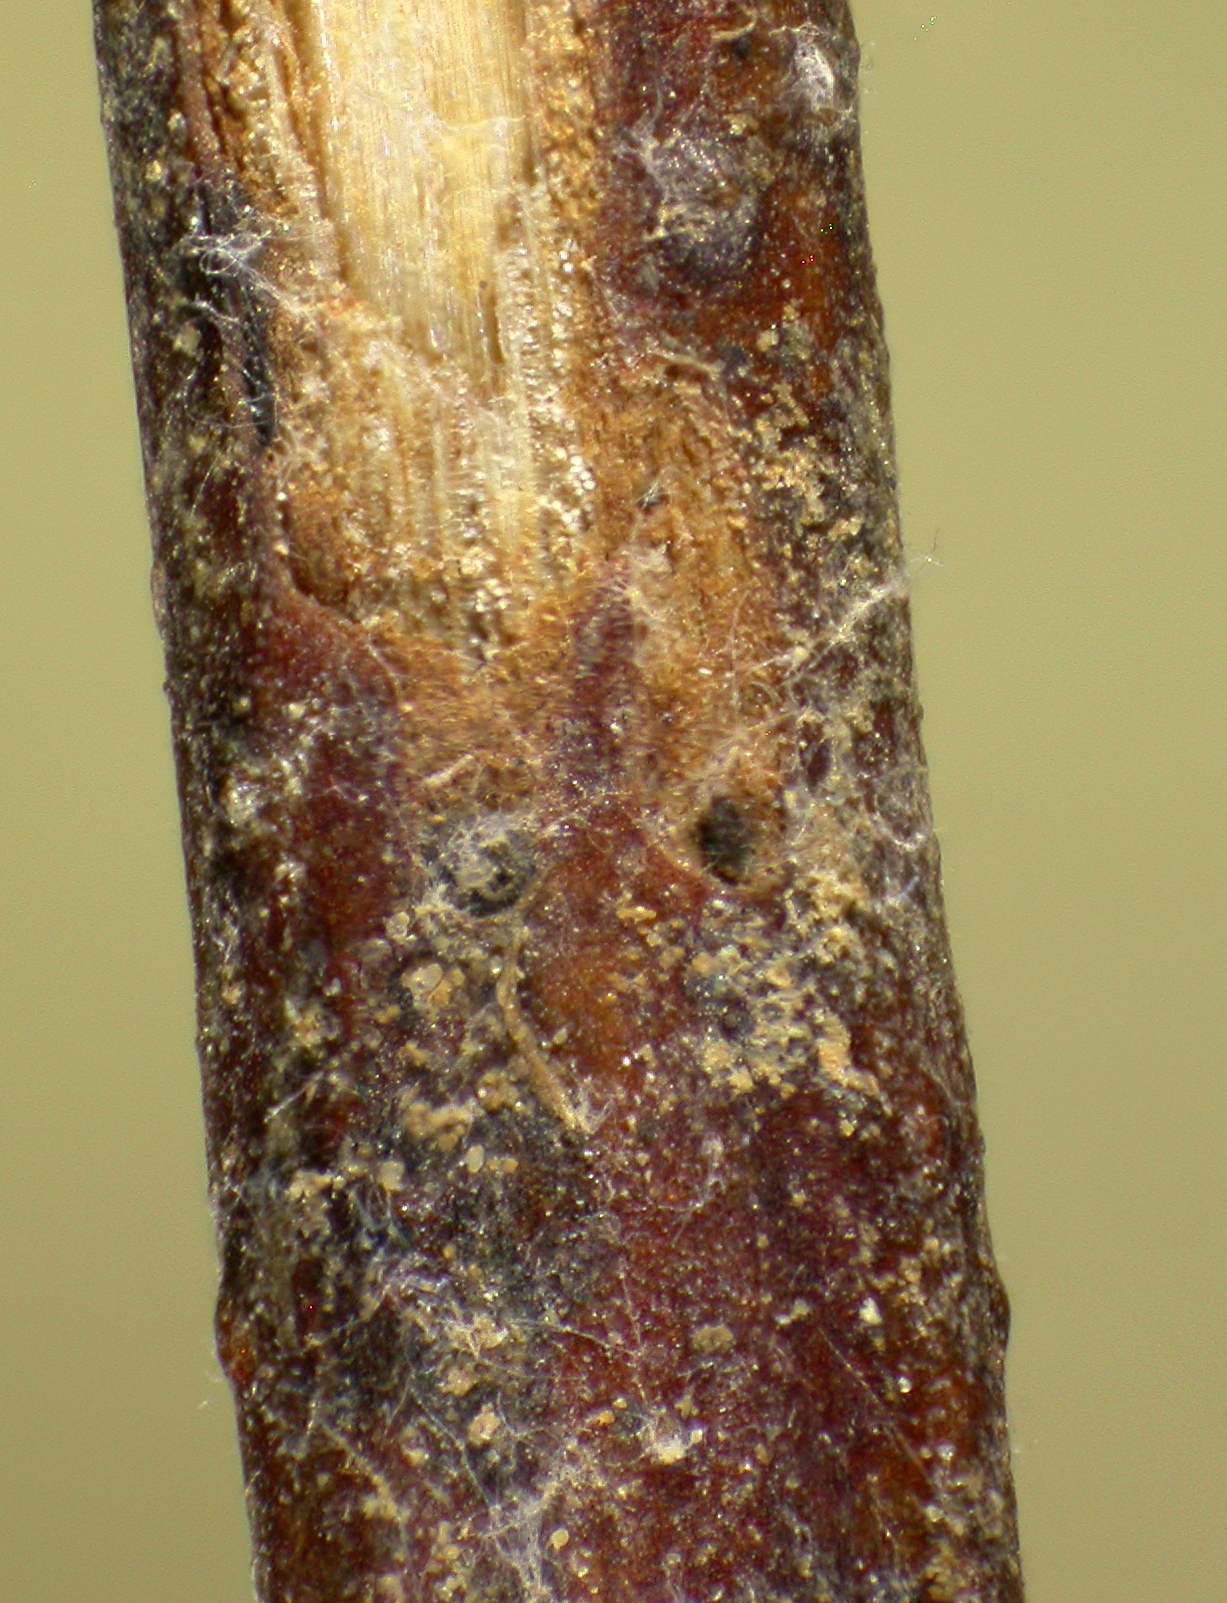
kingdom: Fungi
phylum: Ascomycota
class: Sordariomycetes
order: Amphisphaeriales
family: Amphisphaeriaceae
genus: Massariella
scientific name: Massariella
